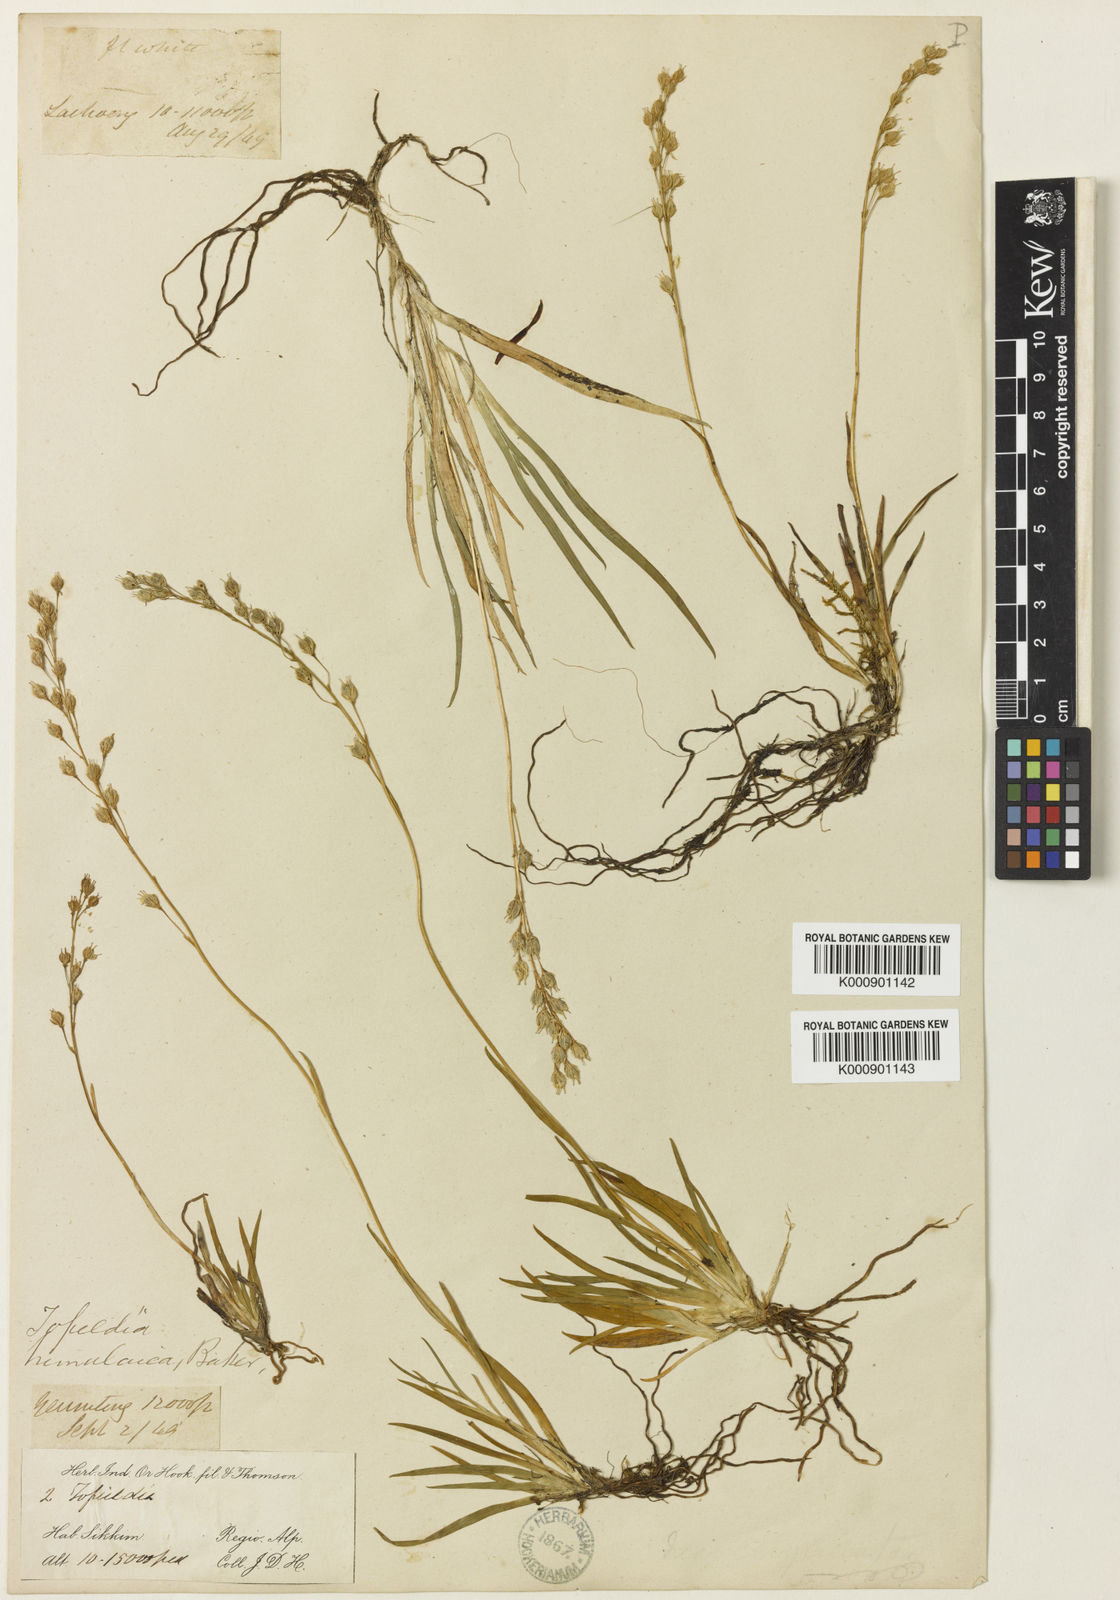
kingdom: Plantae
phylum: Tracheophyta
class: Liliopsida
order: Alismatales
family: Tofieldiaceae
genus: Tofieldia
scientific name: Tofieldia himalaica
